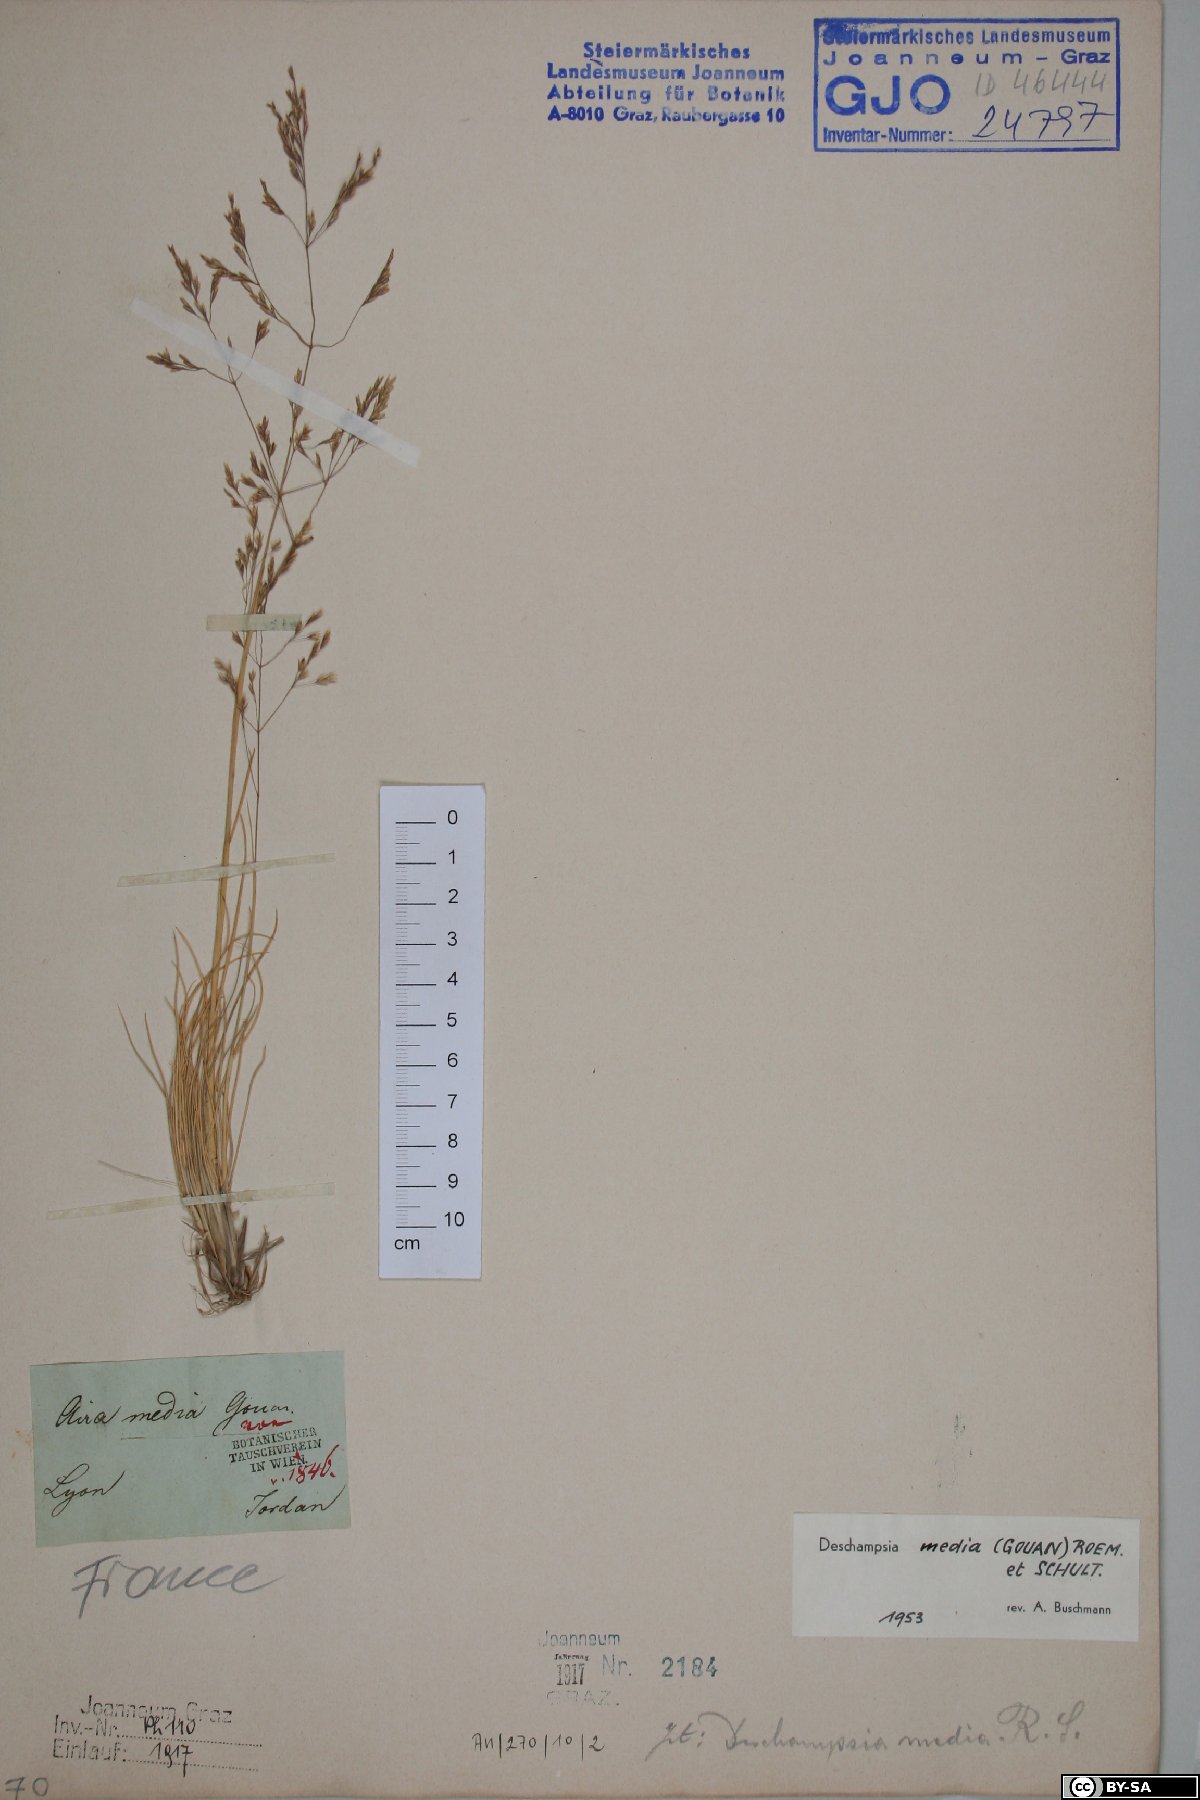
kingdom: Plantae
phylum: Tracheophyta
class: Liliopsida
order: Poales
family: Poaceae
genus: Deschampsia
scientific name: Deschampsia media
